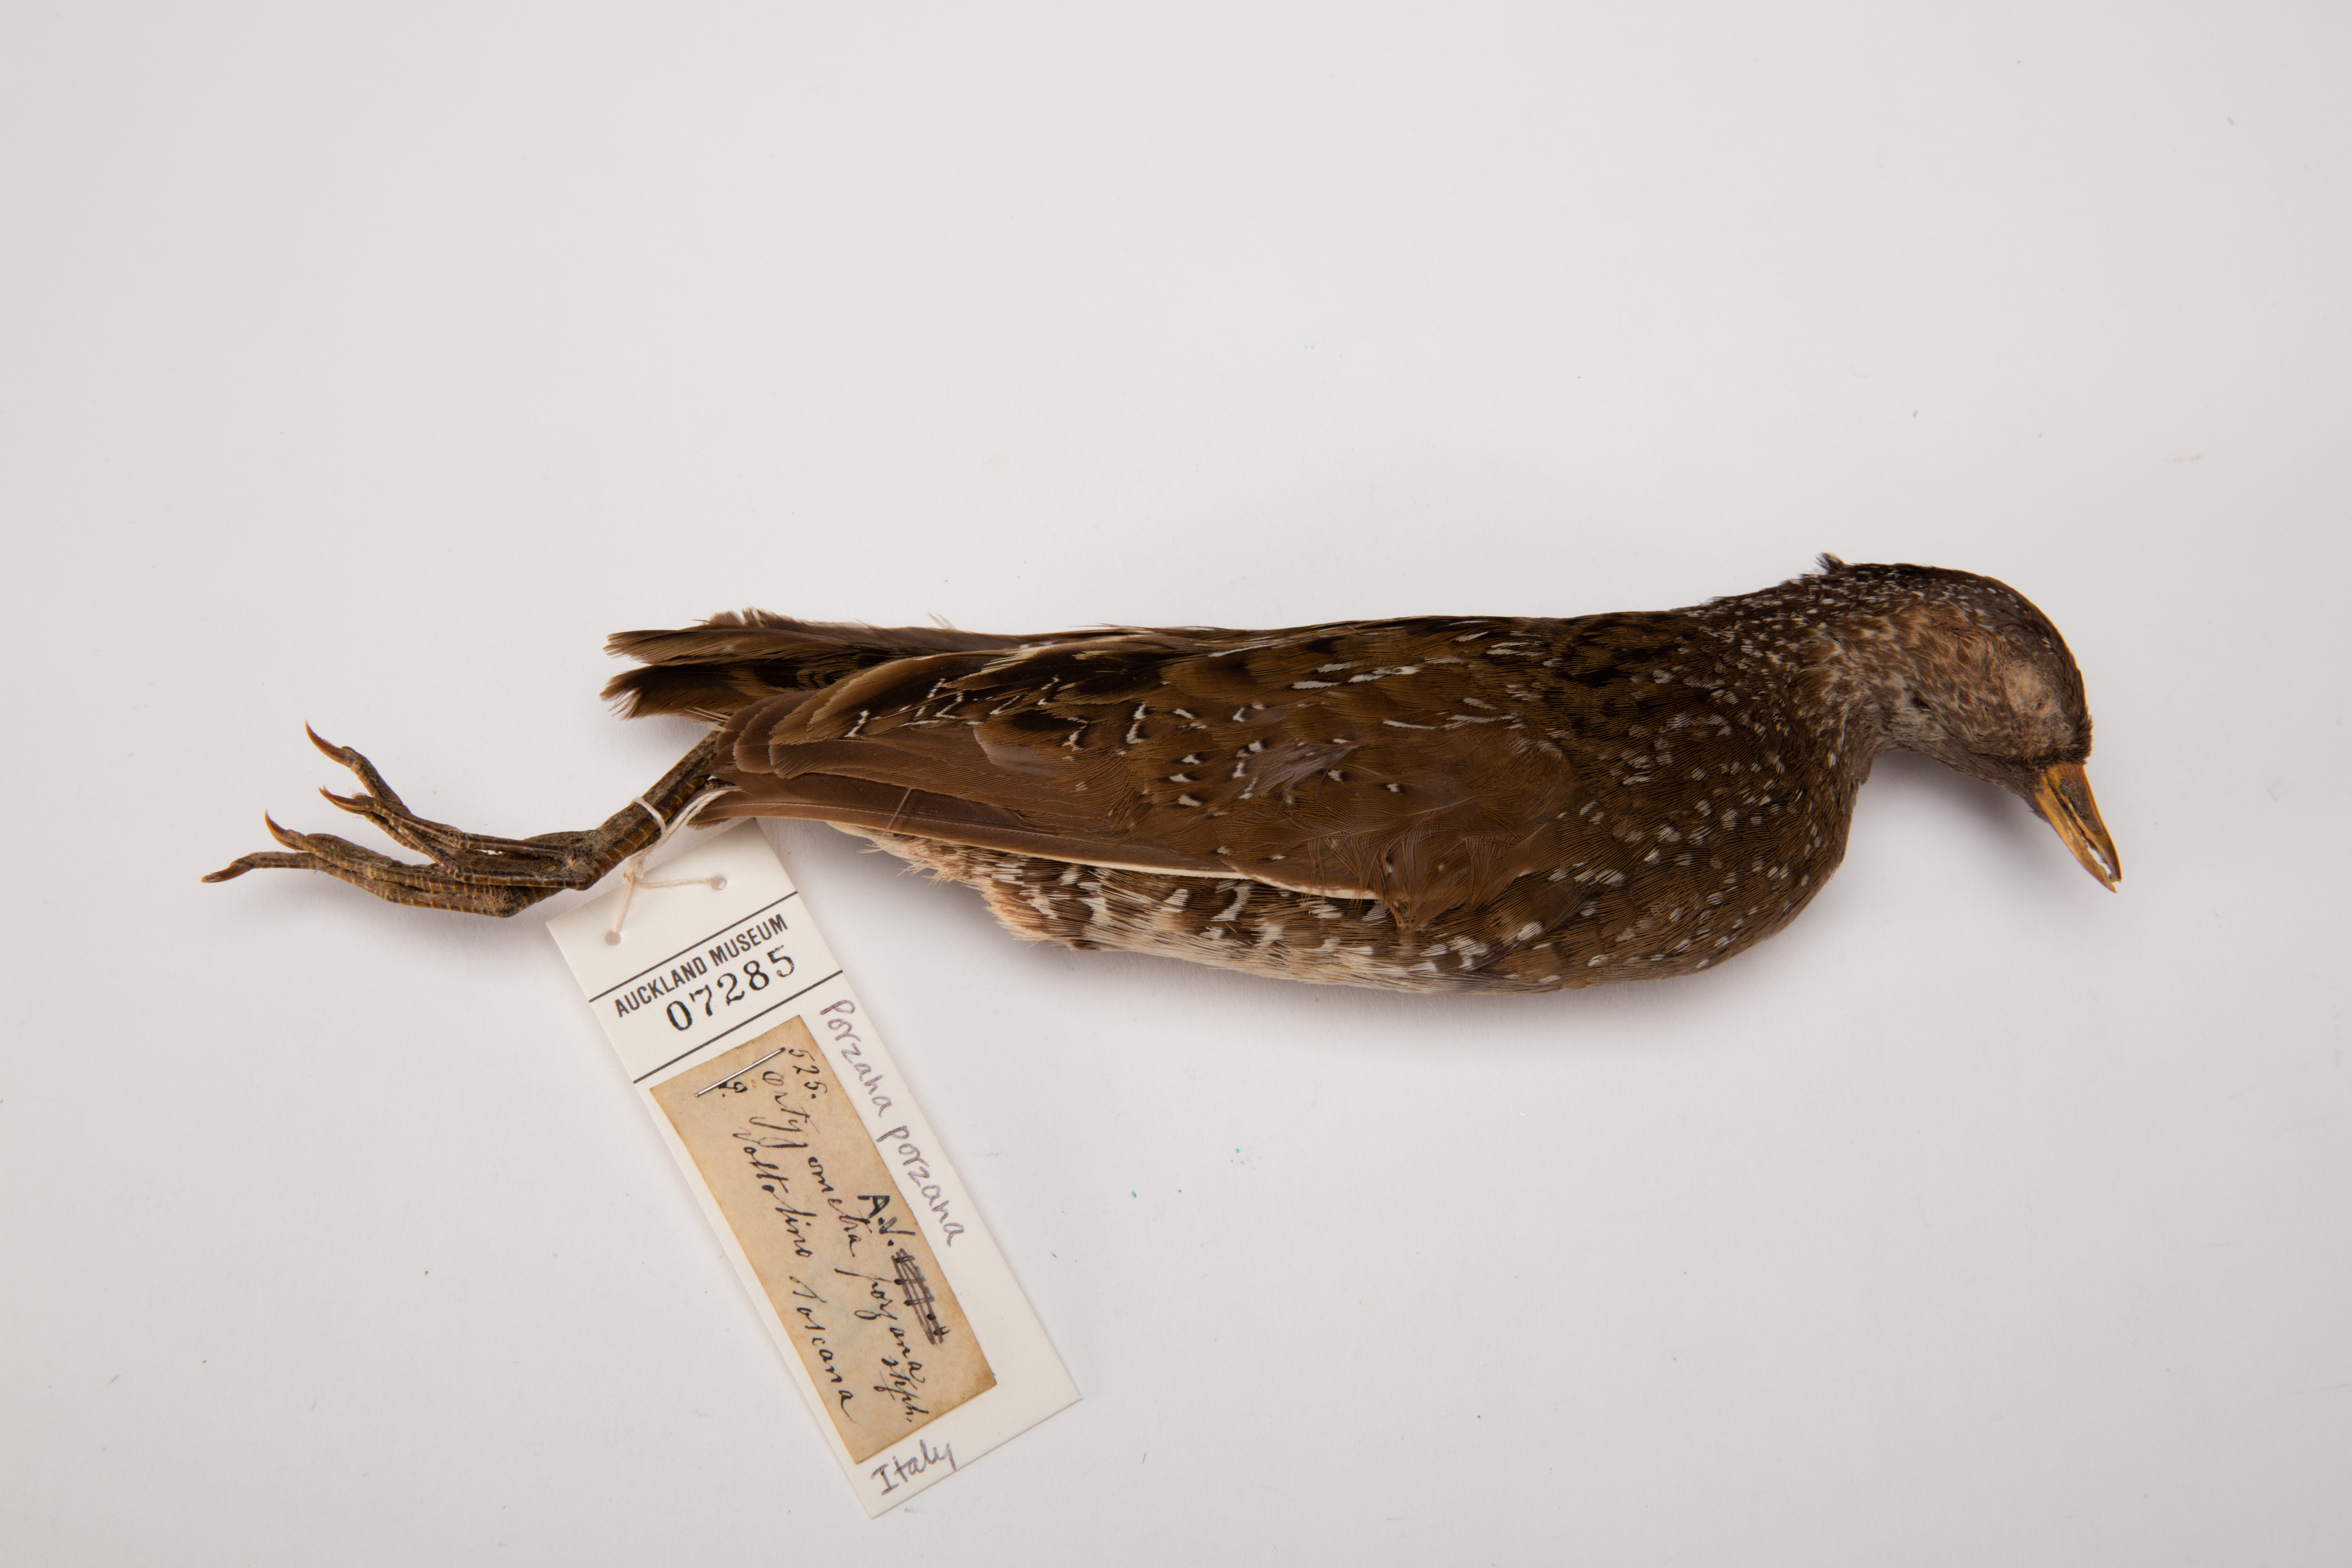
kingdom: Animalia
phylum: Chordata
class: Aves
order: Gruiformes
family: Rallidae
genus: Porzana
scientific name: Porzana porzana
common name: Spotted crake
